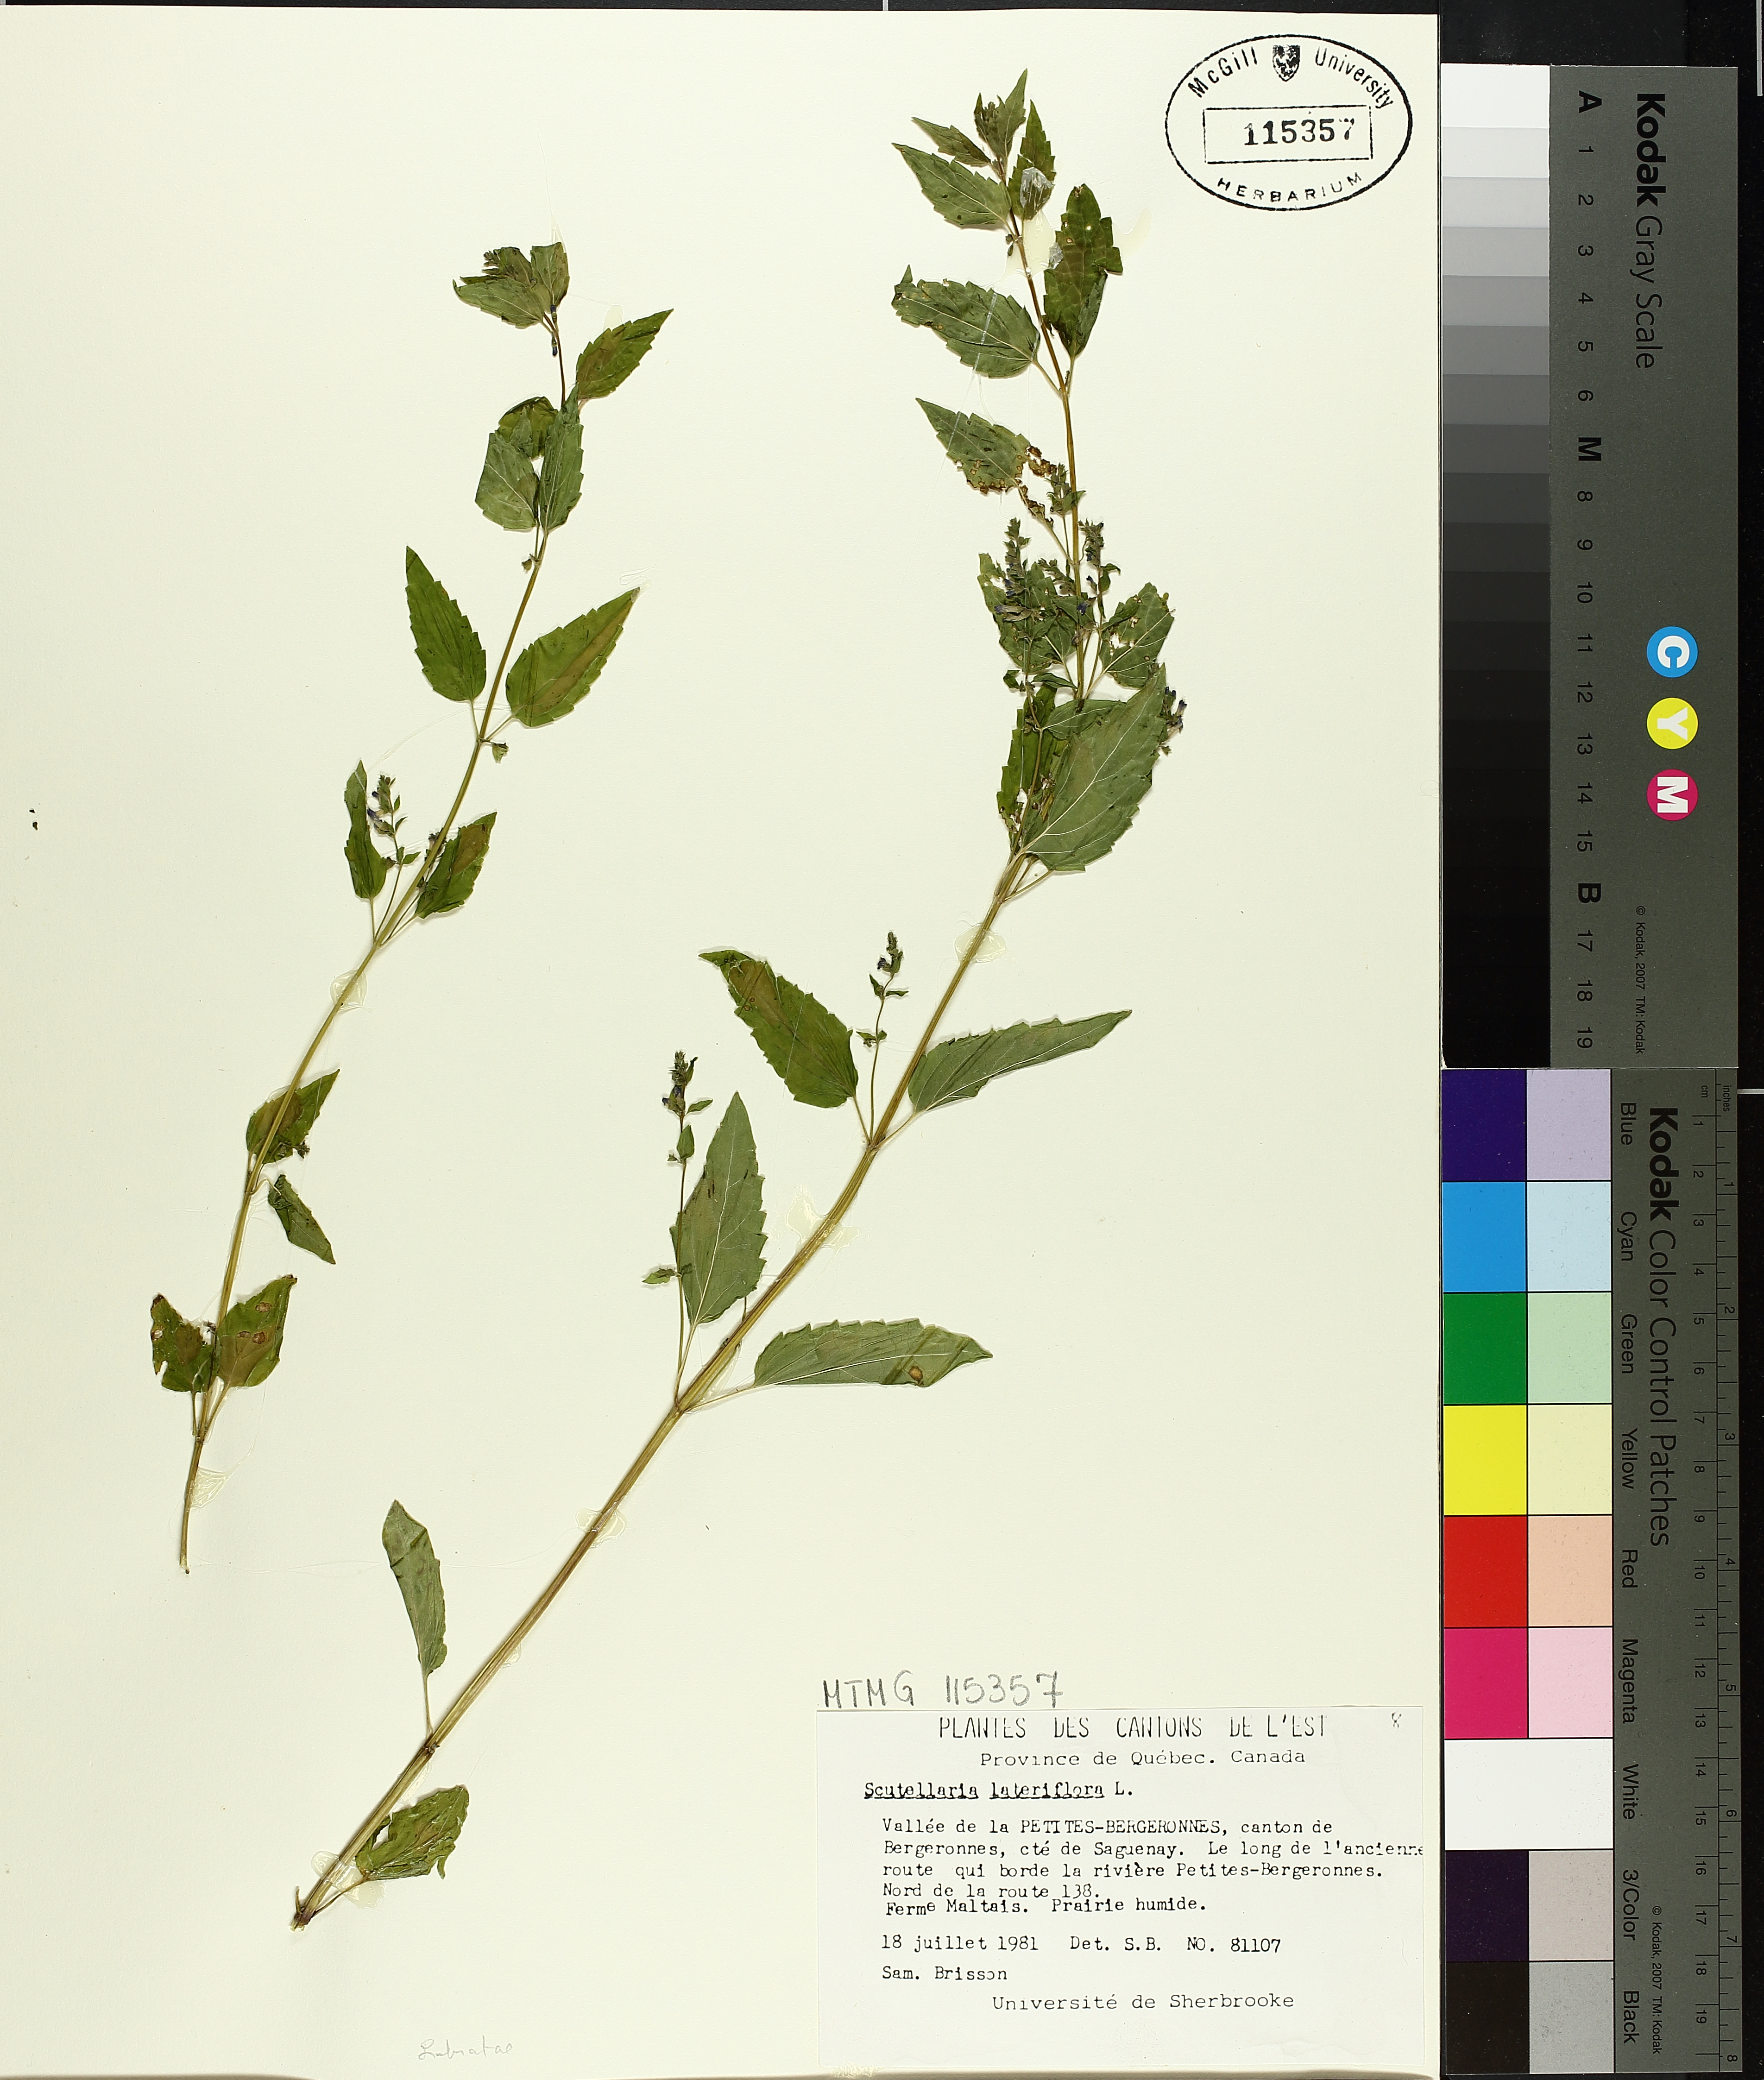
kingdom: Plantae
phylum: Tracheophyta
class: Magnoliopsida
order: Lamiales
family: Lamiaceae
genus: Scutellaria
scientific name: Scutellaria lateriflora
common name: Blue skullcap
